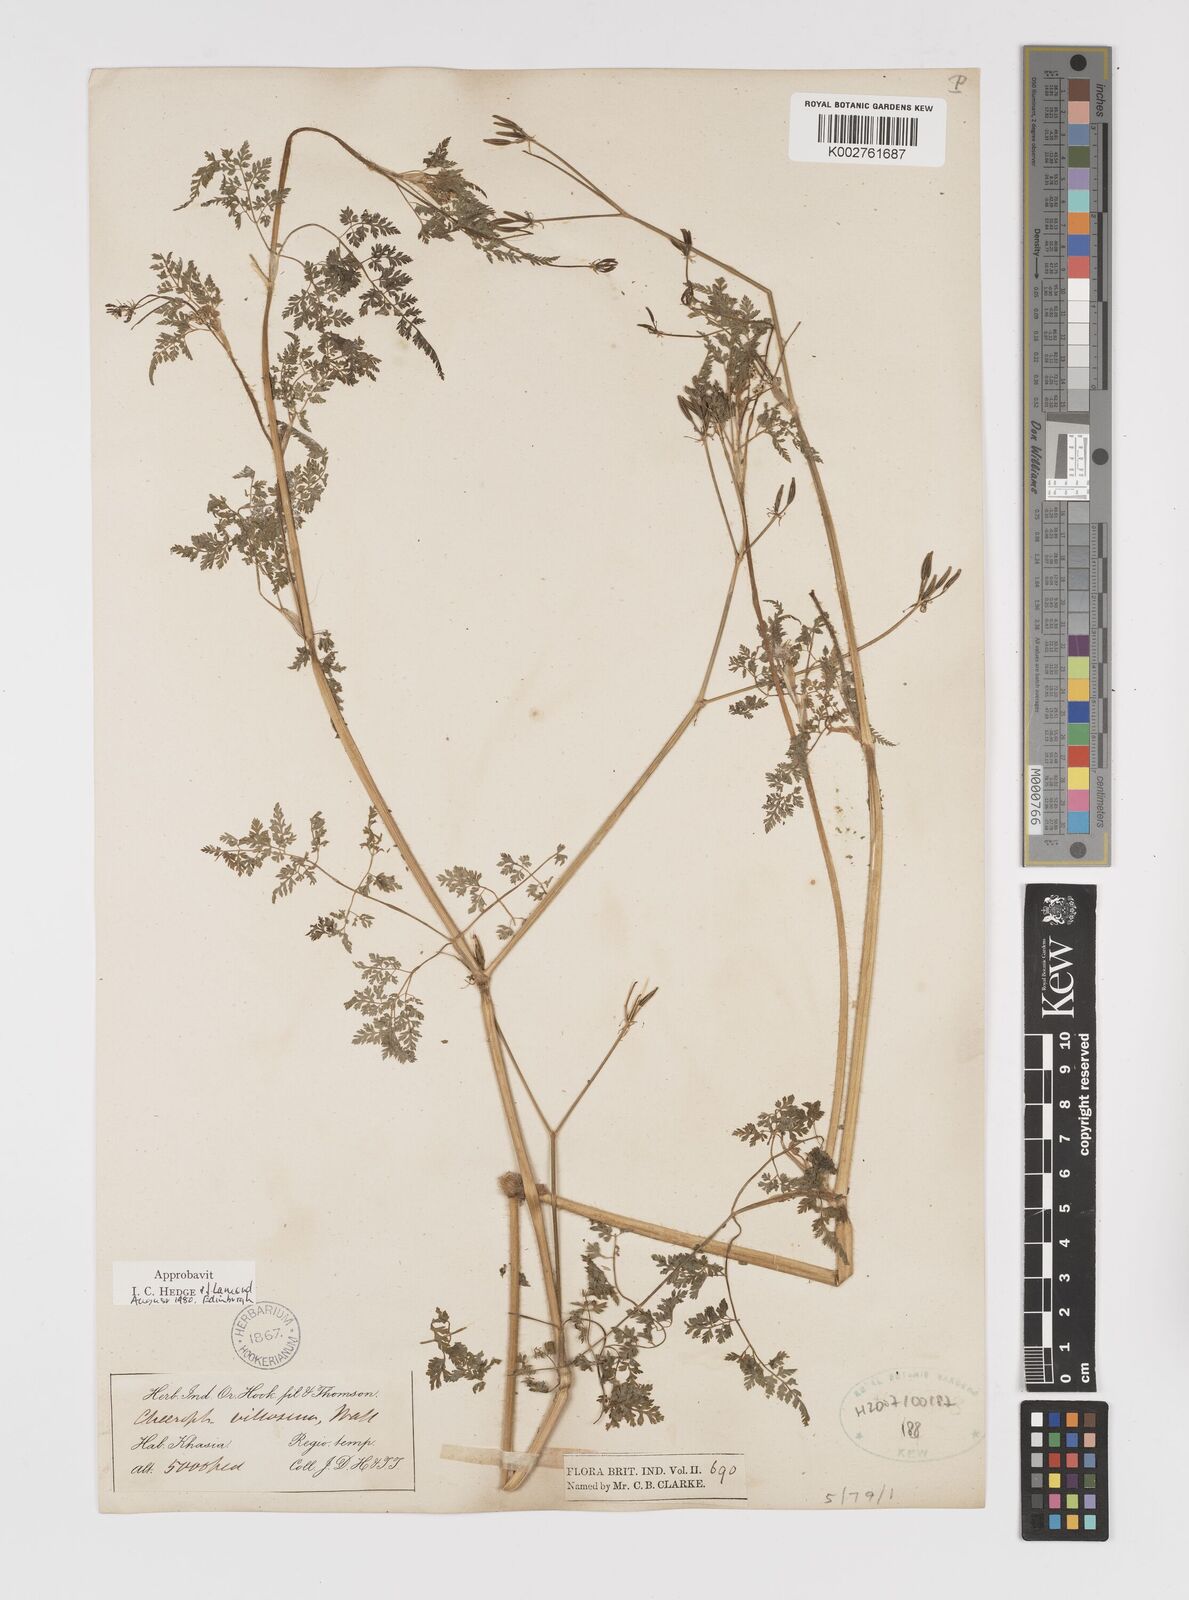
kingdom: Plantae
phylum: Tracheophyta
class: Magnoliopsida
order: Apiales
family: Apiaceae
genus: Chaerophyllum
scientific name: Chaerophyllum villosum
